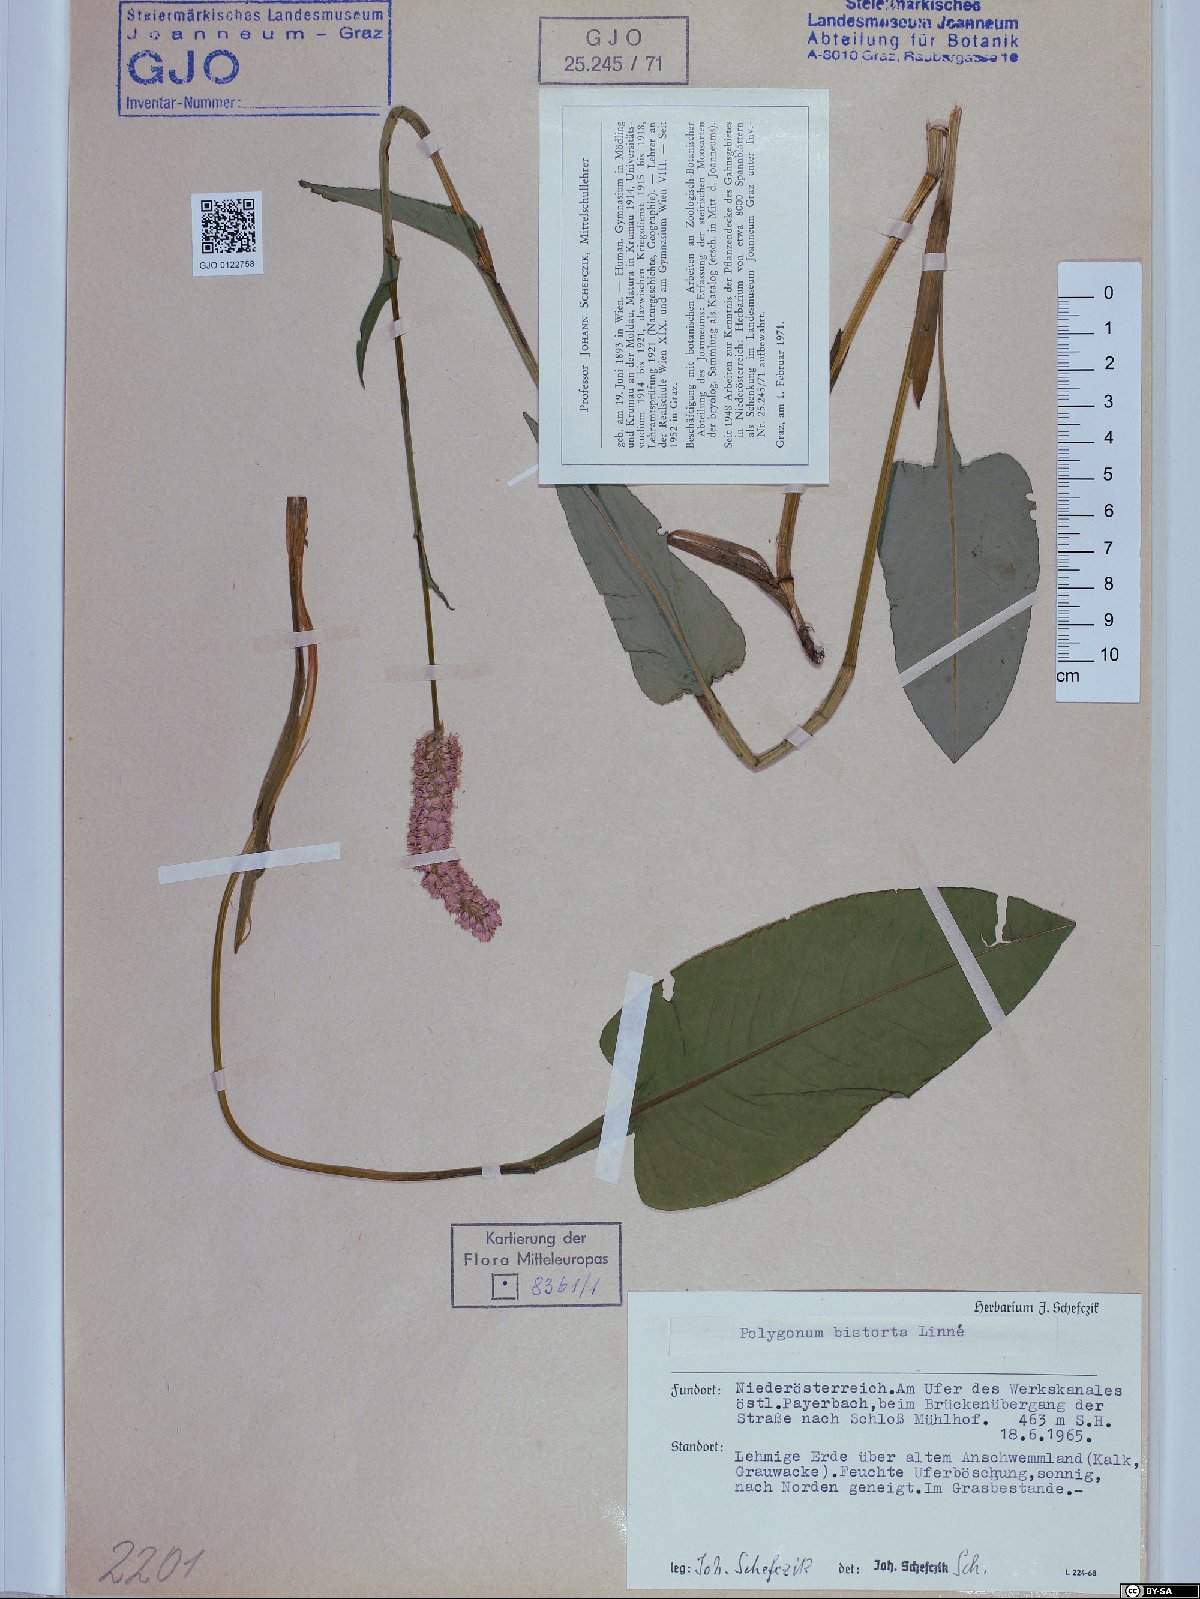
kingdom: Plantae
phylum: Tracheophyta
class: Magnoliopsida
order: Caryophyllales
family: Polygonaceae
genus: Bistorta
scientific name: Bistorta officinalis
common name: Common bistort
